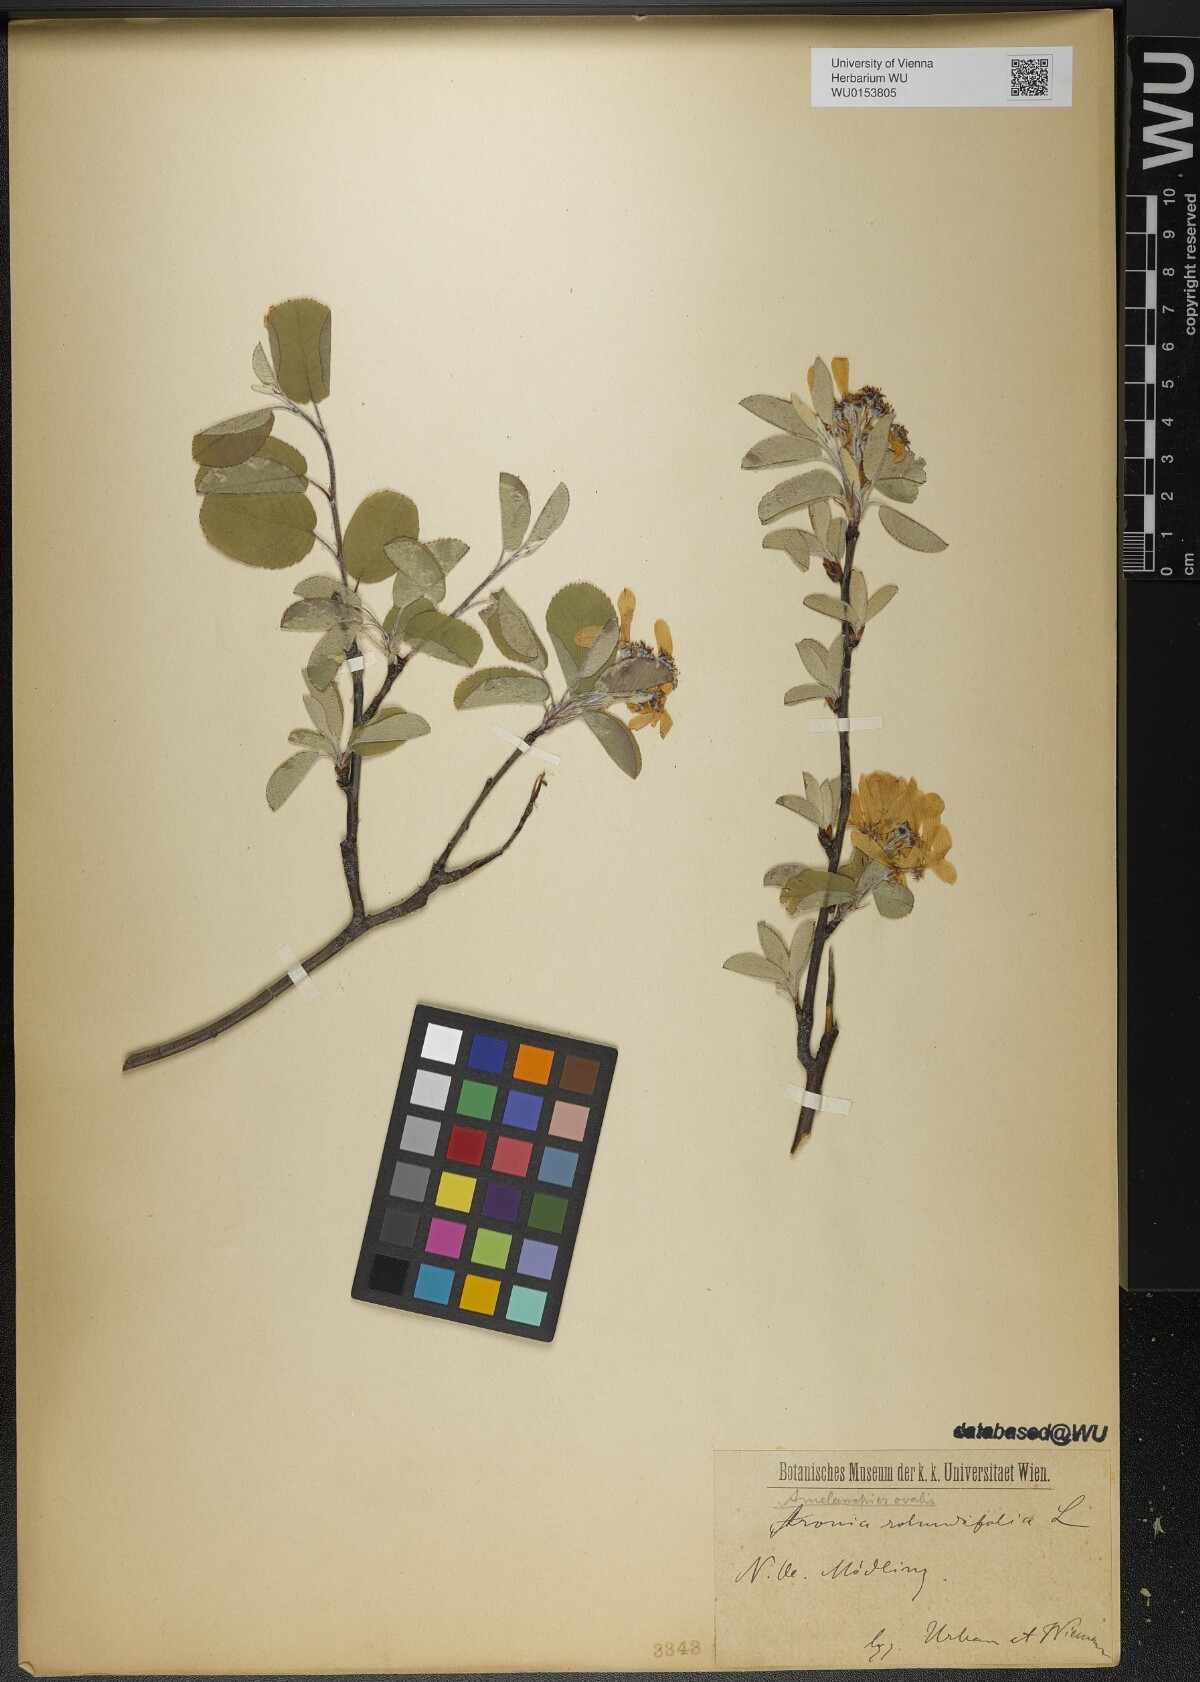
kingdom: Plantae
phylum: Tracheophyta
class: Magnoliopsida
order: Rosales
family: Rosaceae
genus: Amelanchier
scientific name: Amelanchier ovalis
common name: Serviceberry
